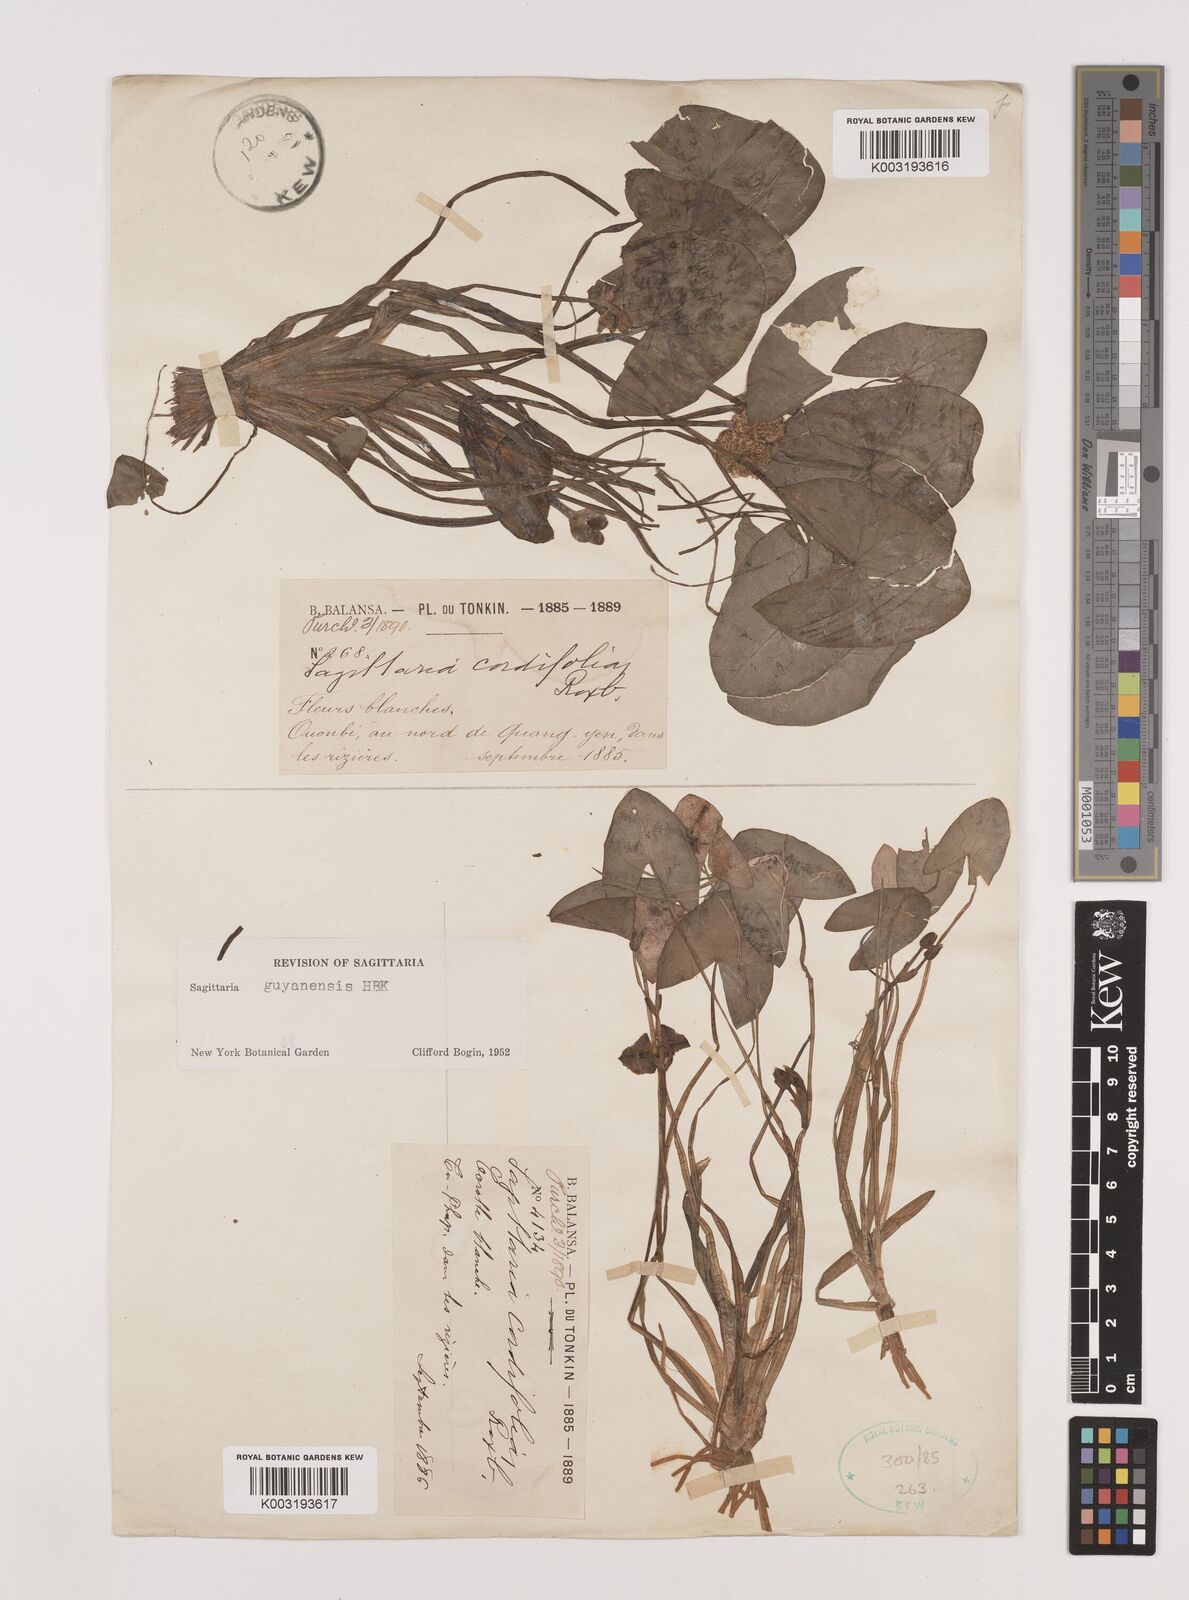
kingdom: Plantae
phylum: Tracheophyta
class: Liliopsida
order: Alismatales
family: Alismataceae
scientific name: Alismataceae
